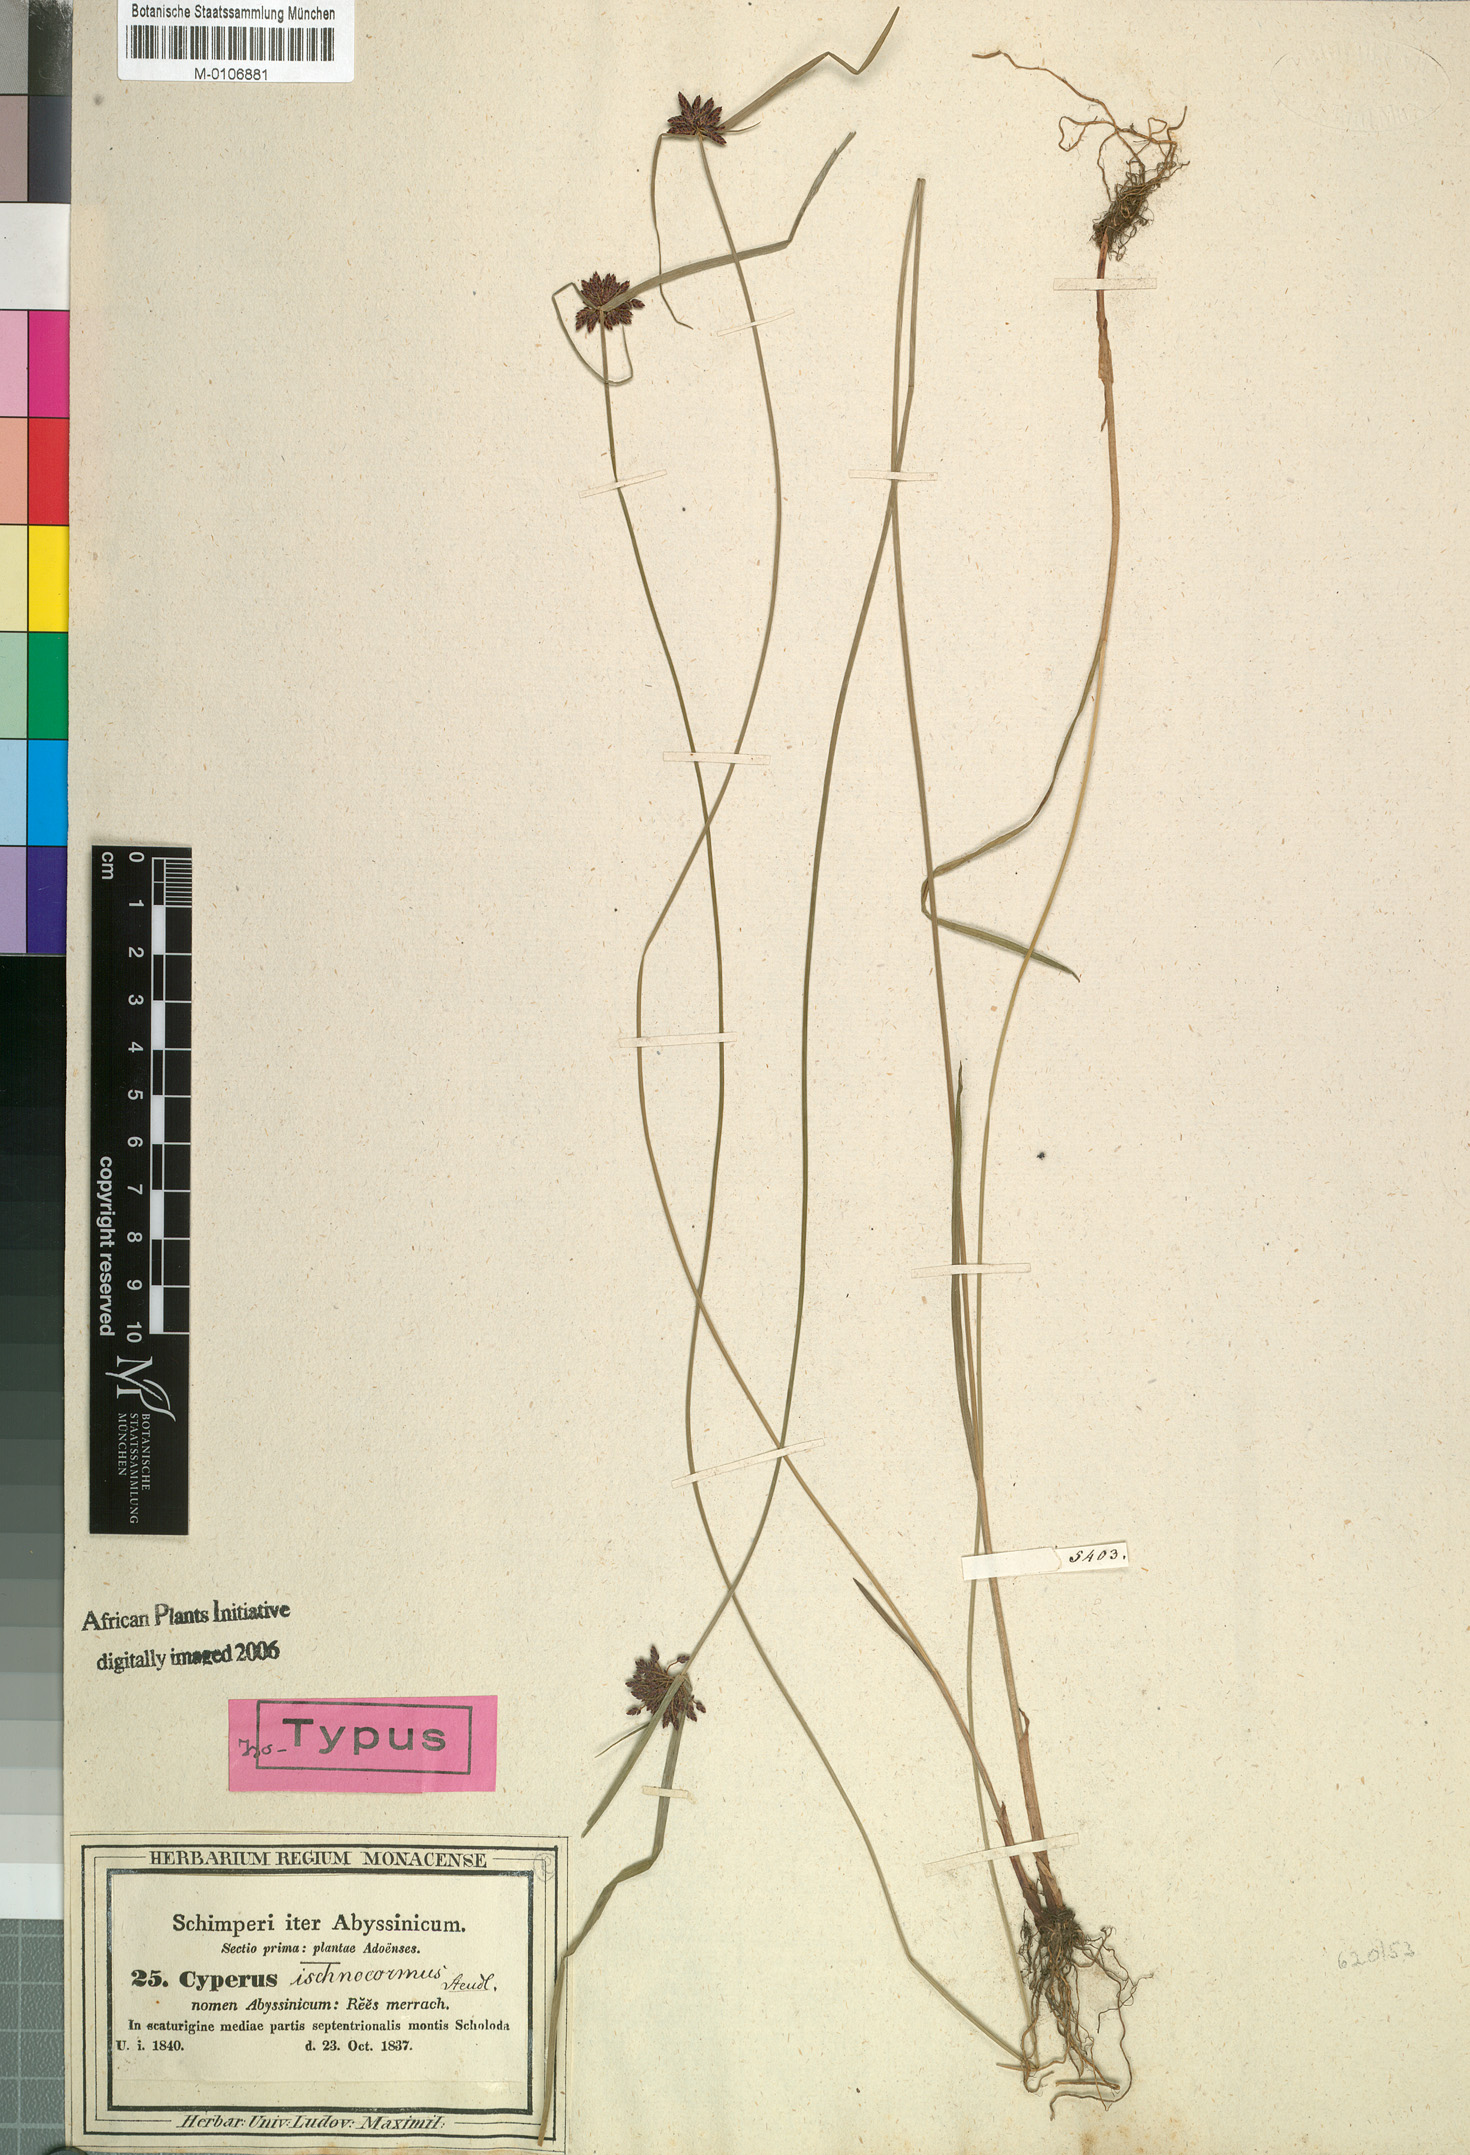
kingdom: Plantae
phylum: Tracheophyta
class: Liliopsida
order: Poales
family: Cyperaceae
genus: Cyperus
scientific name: Cyperus elegantulus
